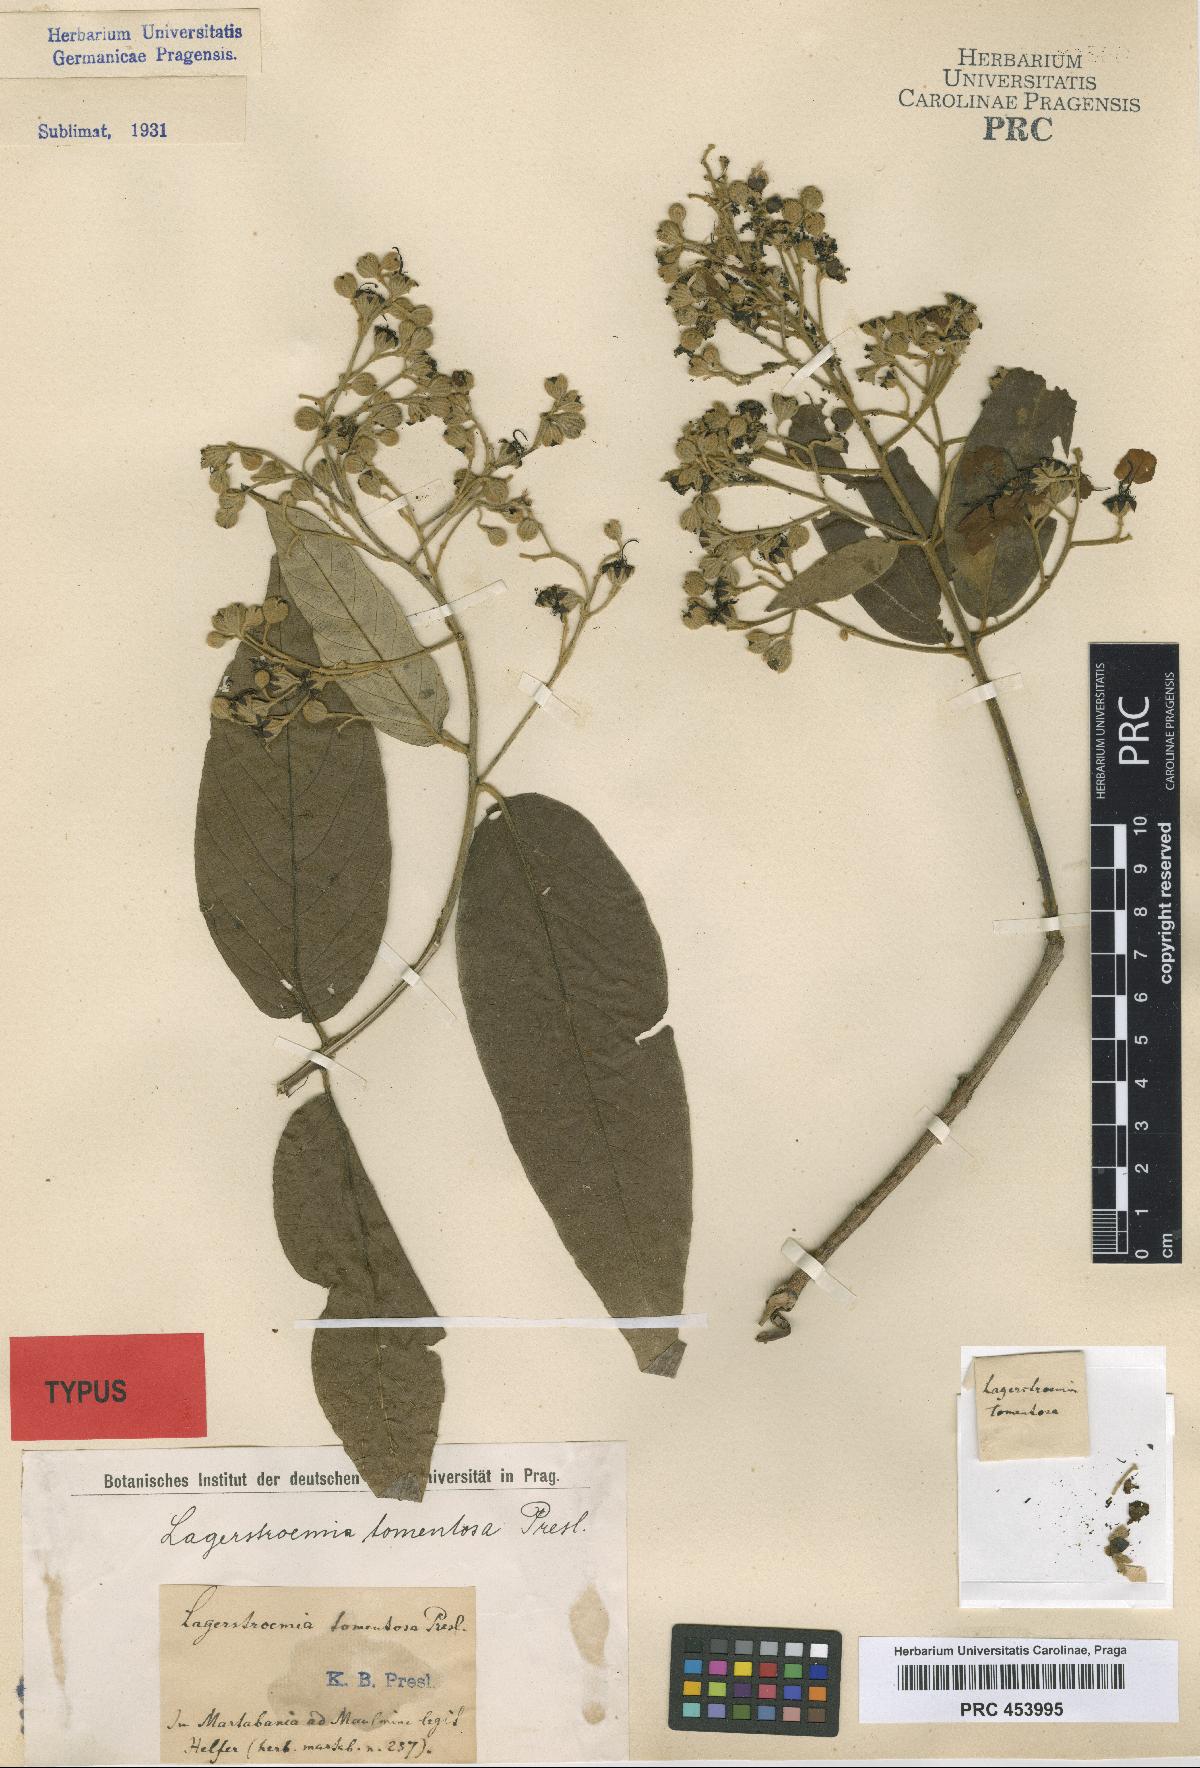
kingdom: Plantae
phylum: Tracheophyta
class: Magnoliopsida
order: Myrtales
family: Lythraceae
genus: Lagerstroemia
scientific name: Lagerstroemia tomentosa
